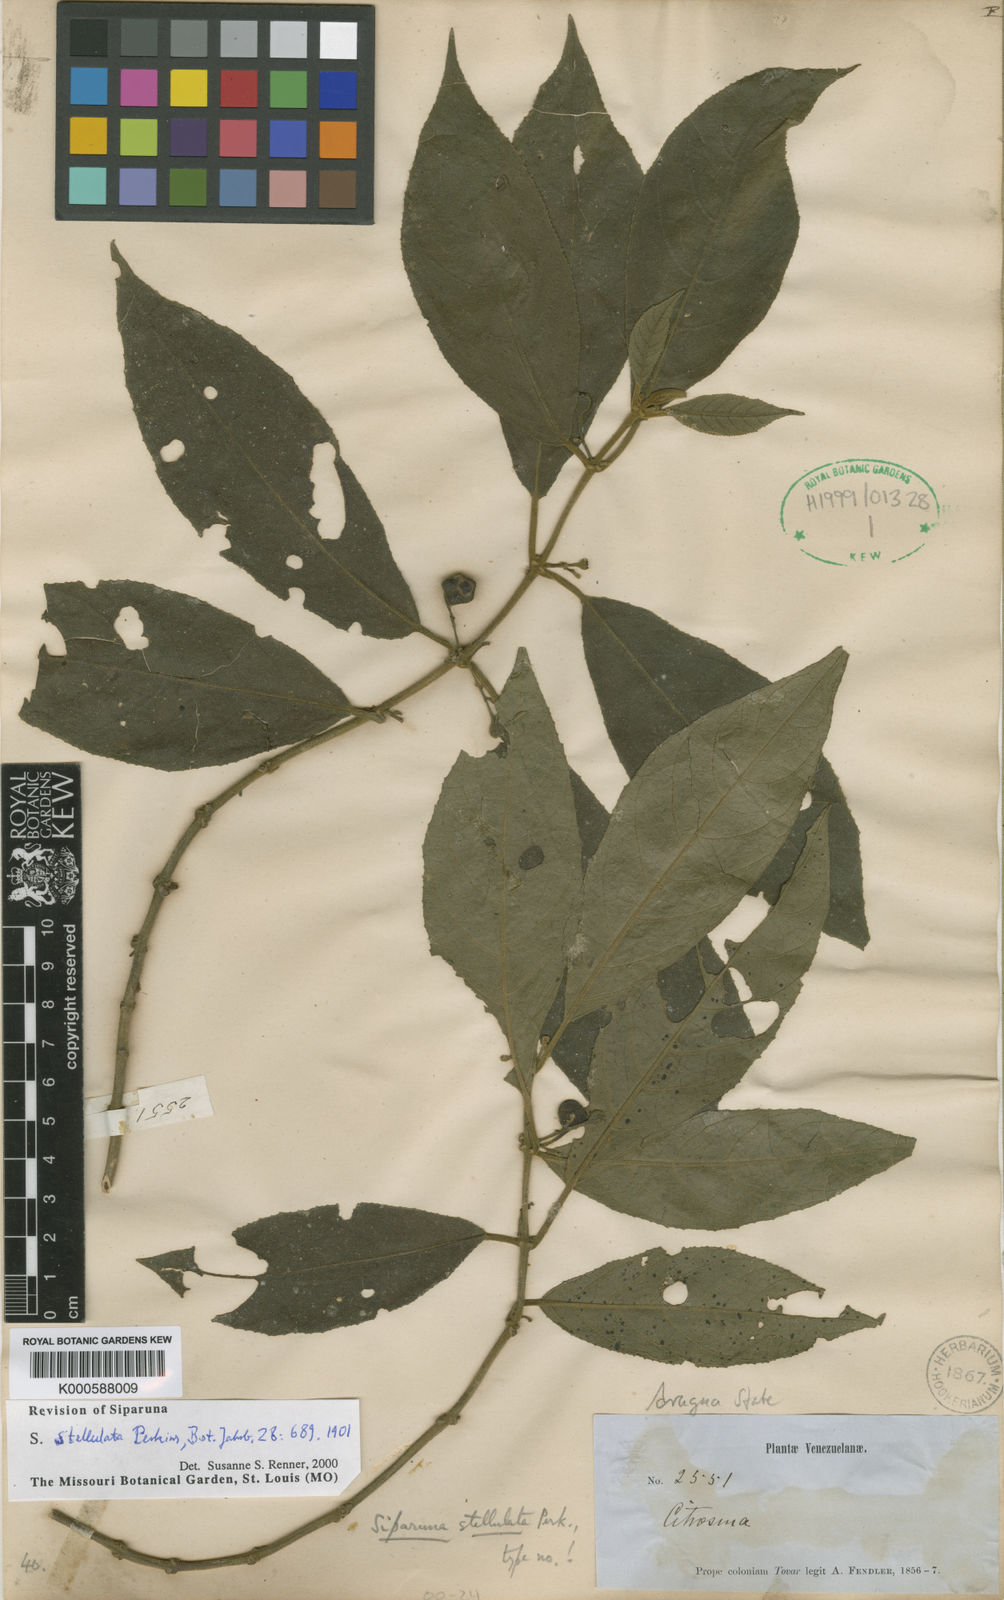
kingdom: Plantae
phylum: Tracheophyta
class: Magnoliopsida
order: Laurales
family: Siparunaceae
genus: Siparuna
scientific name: Siparuna stellulata
